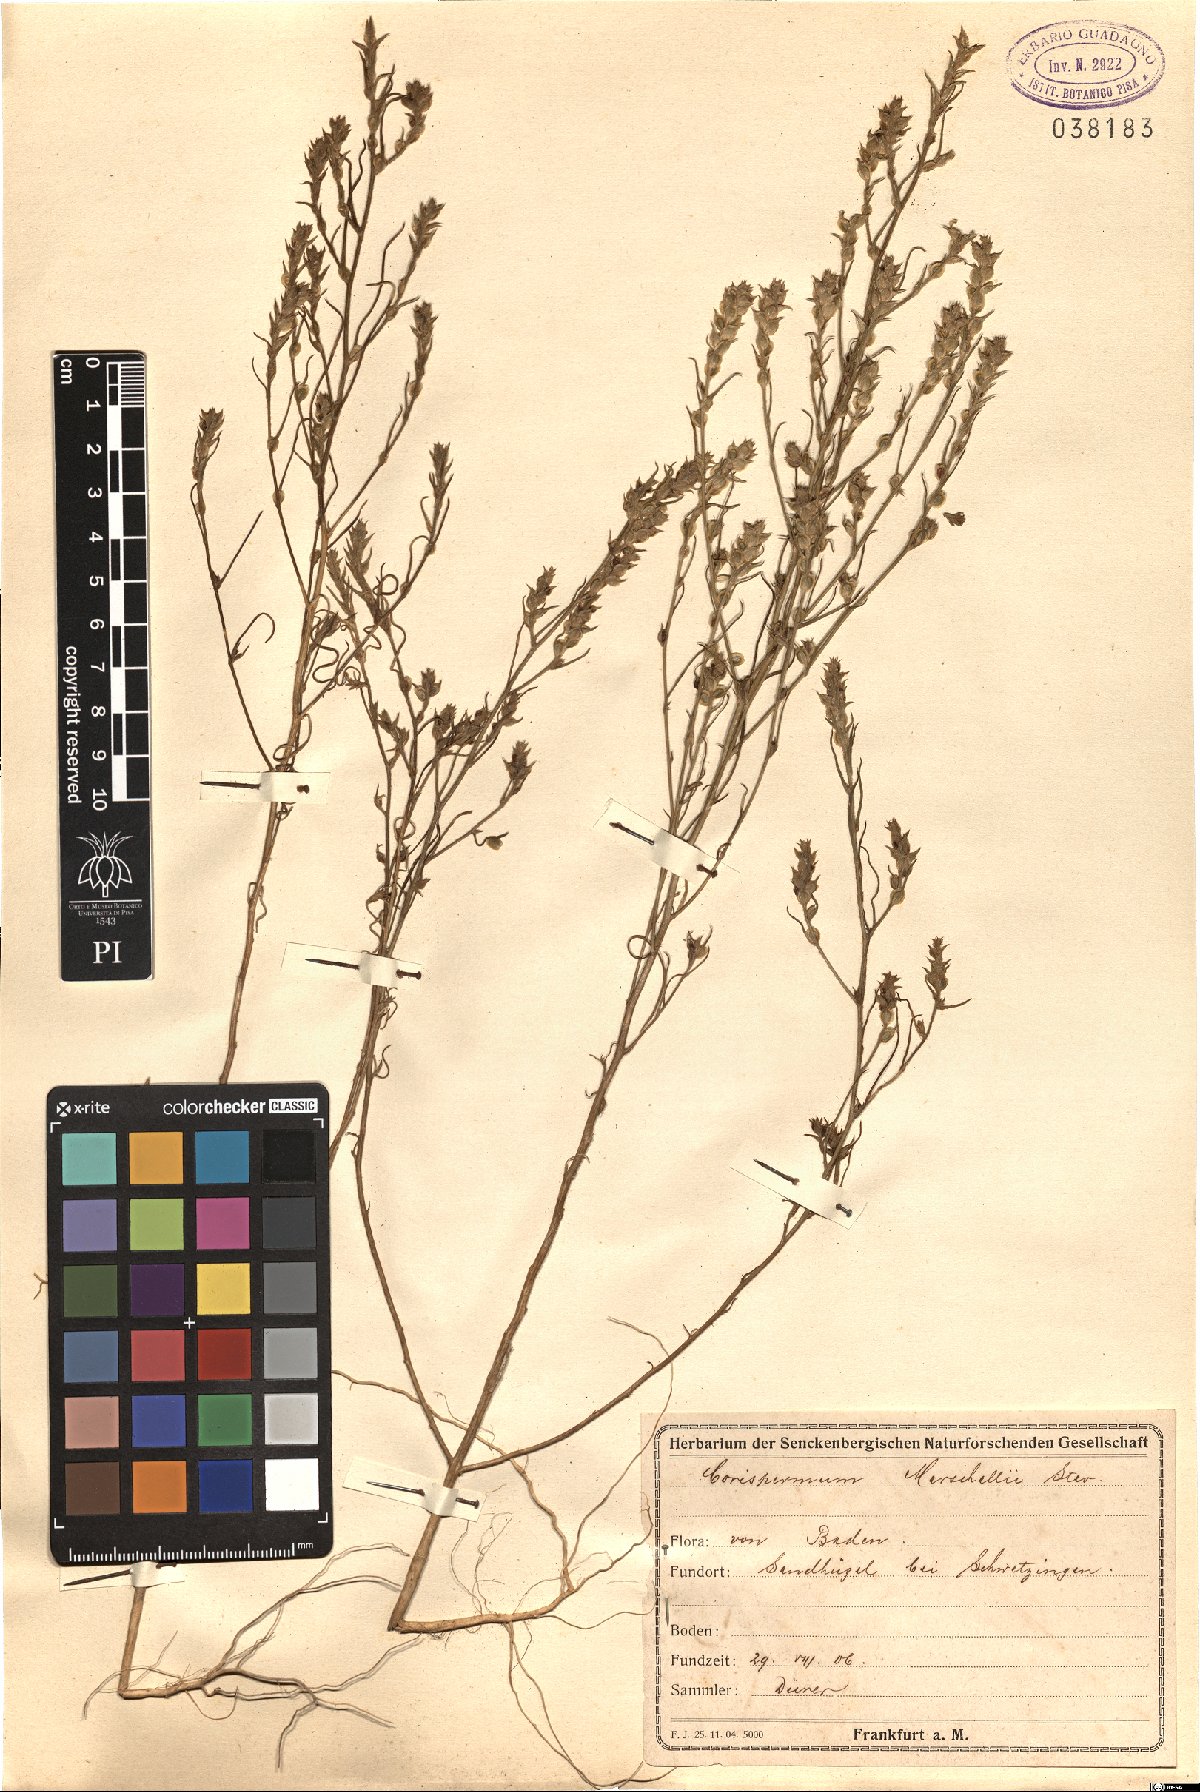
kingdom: Plantae
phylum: Tracheophyta
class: Magnoliopsida
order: Caryophyllales
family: Amaranthaceae
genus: Corispermum
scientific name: Corispermum marschallii
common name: Grey tickseed
